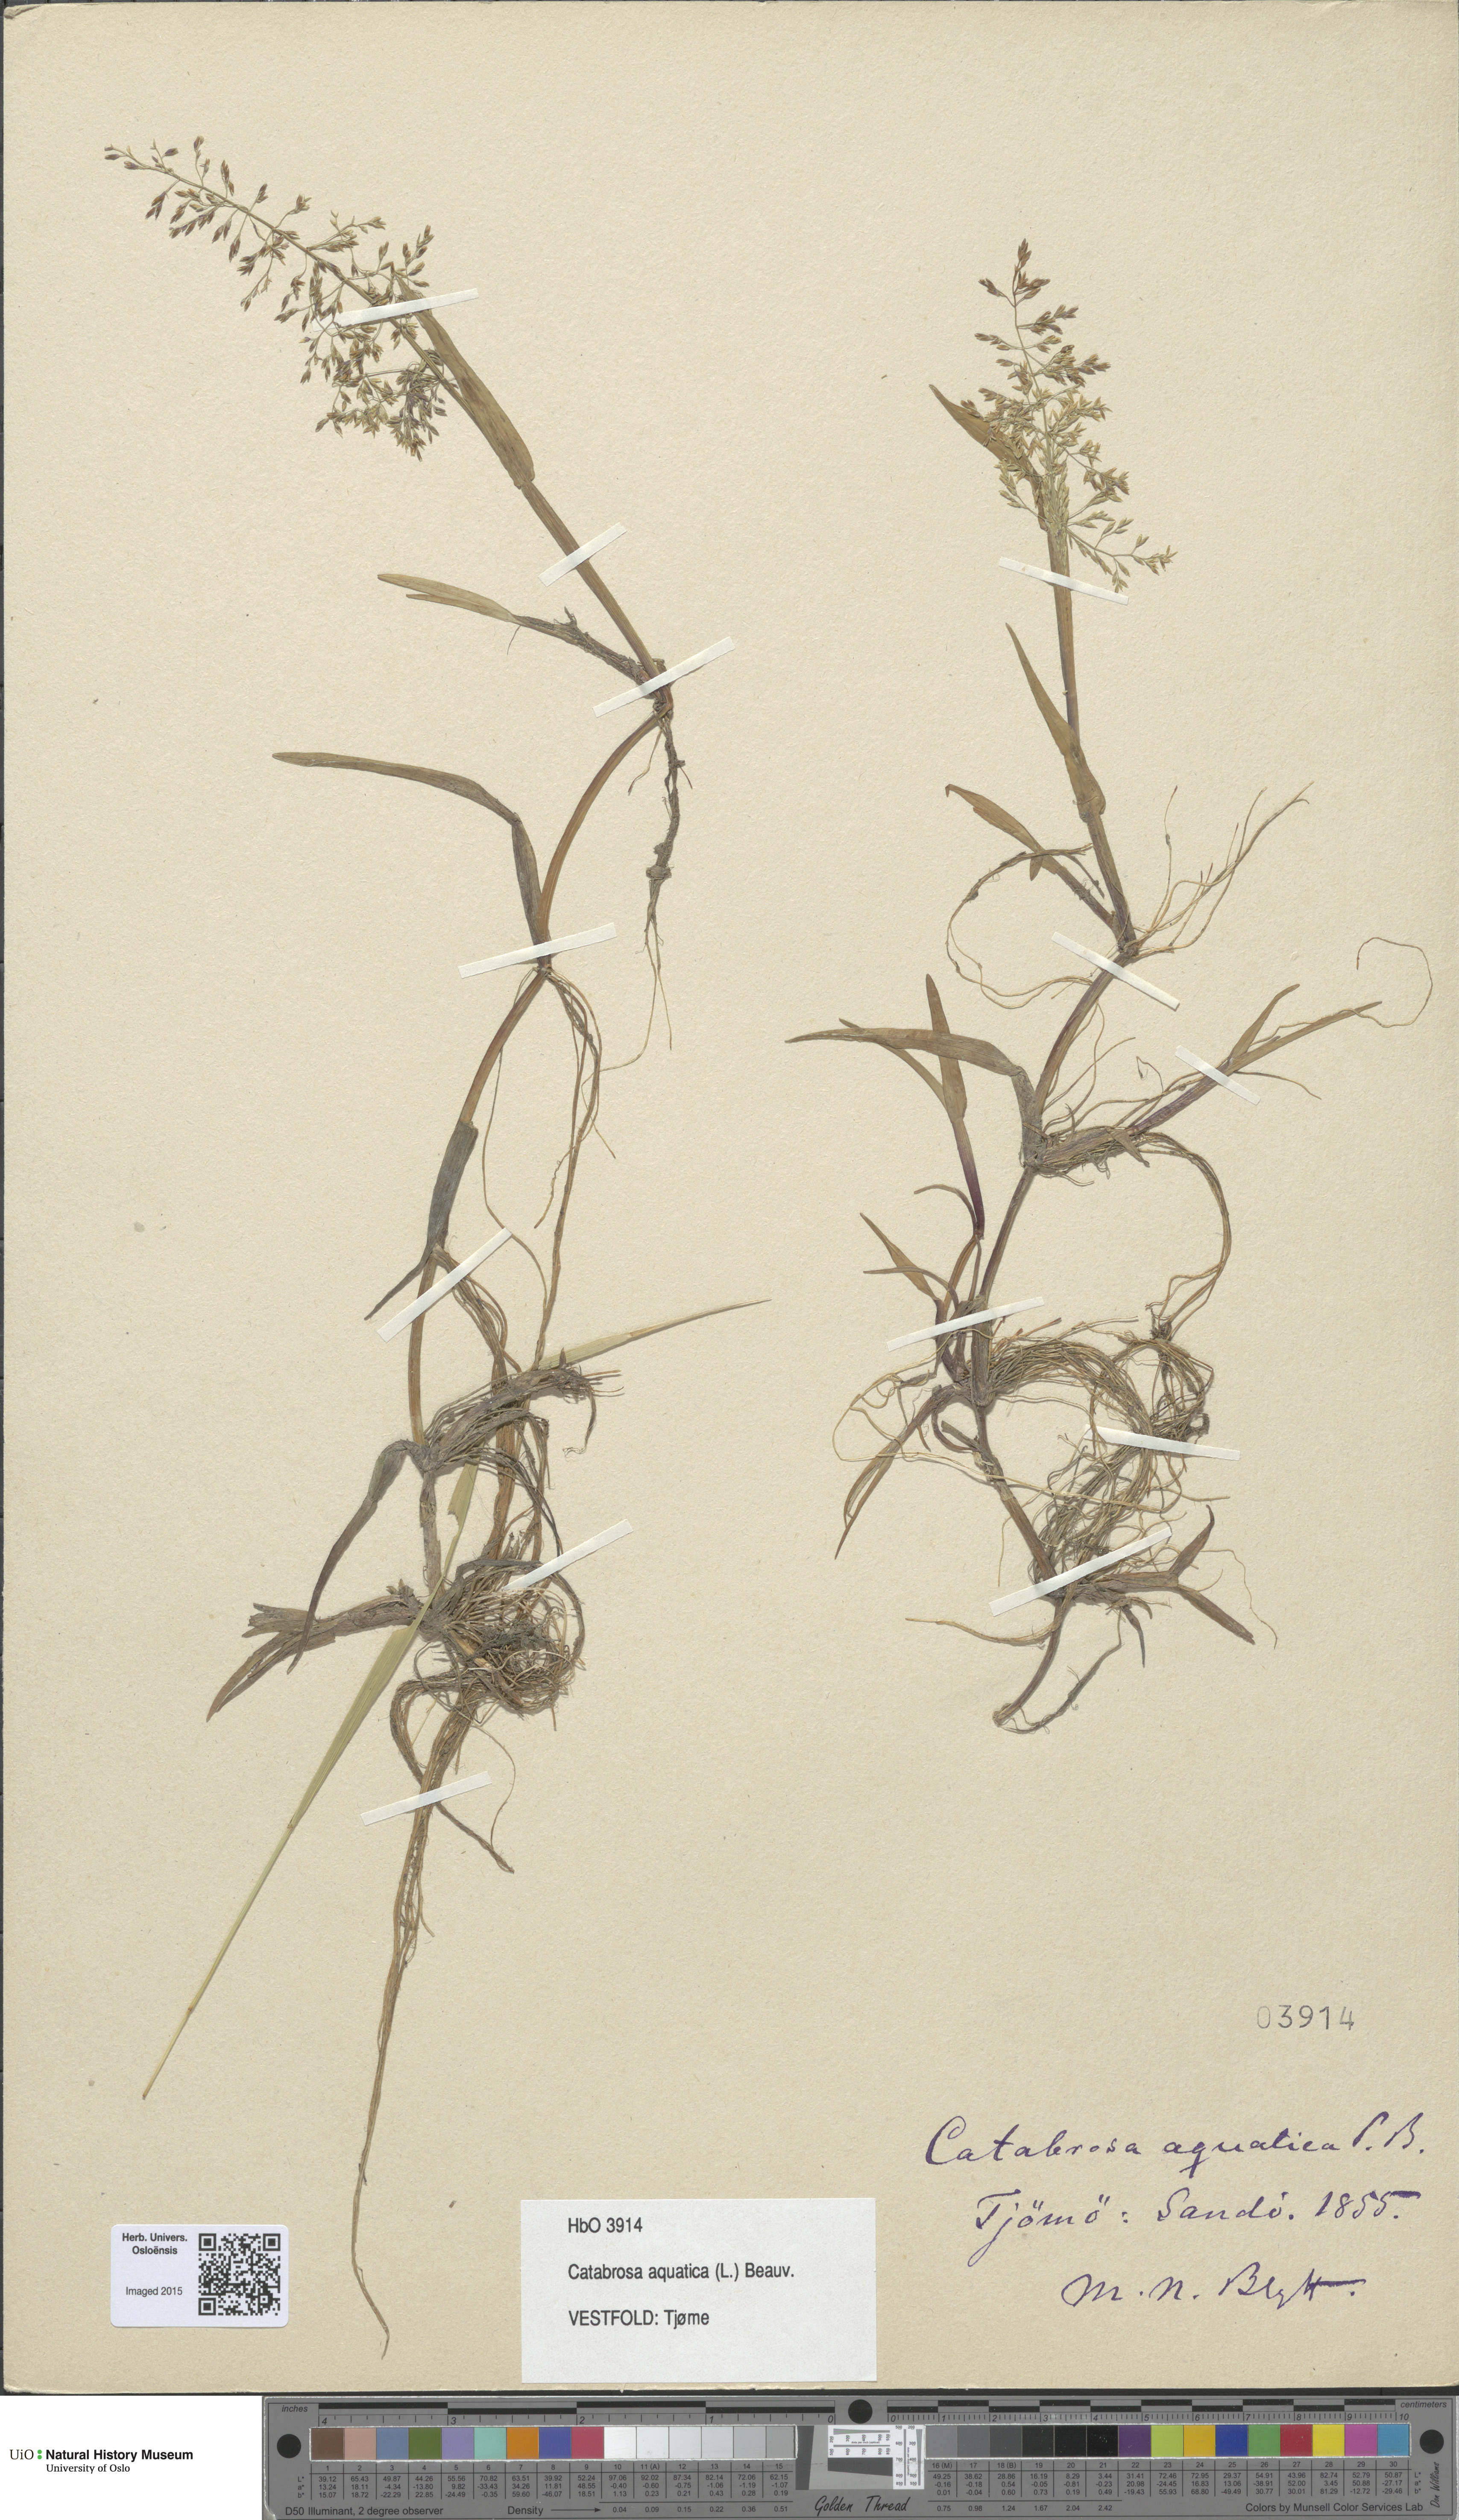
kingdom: Plantae
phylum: Tracheophyta
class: Liliopsida
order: Poales
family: Poaceae
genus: Catabrosa
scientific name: Catabrosa aquatica
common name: Whorl-grass
